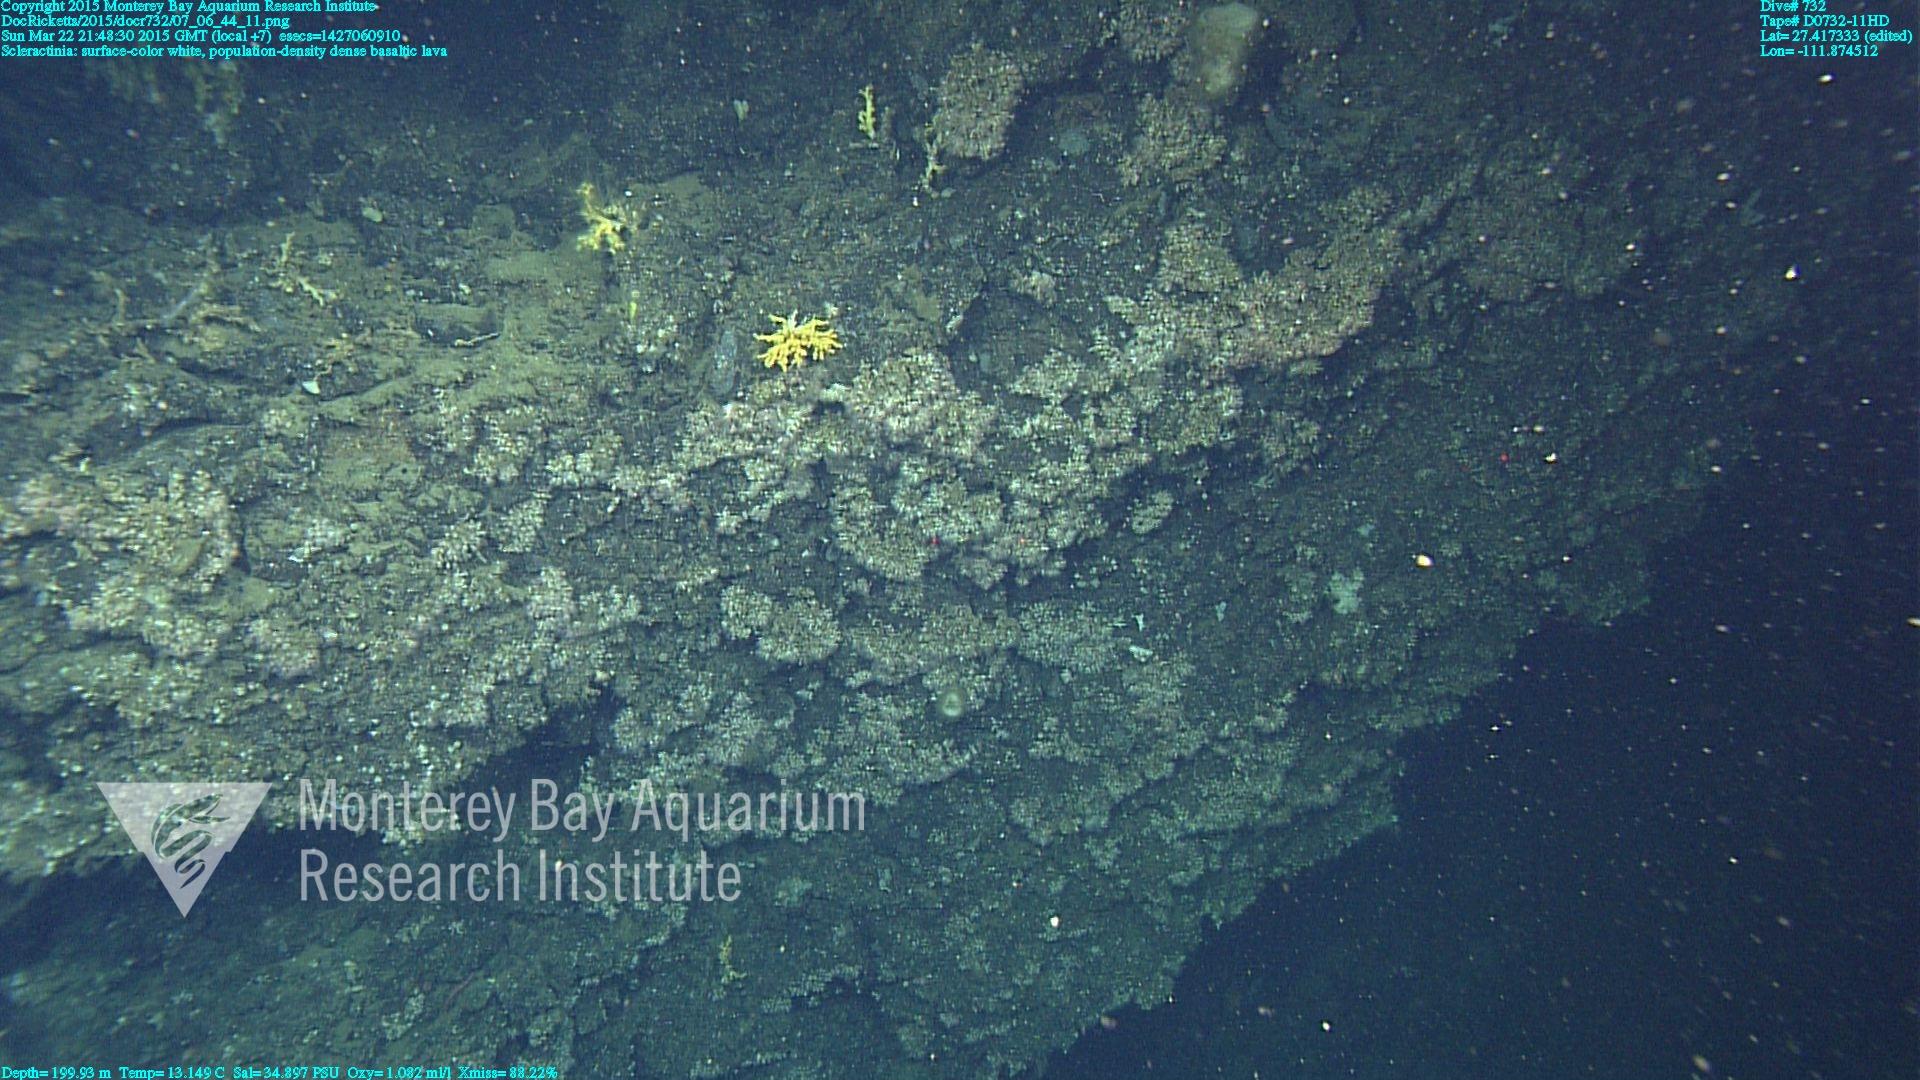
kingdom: Animalia
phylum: Cnidaria
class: Anthozoa
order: Scleractinia
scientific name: Scleractinia
